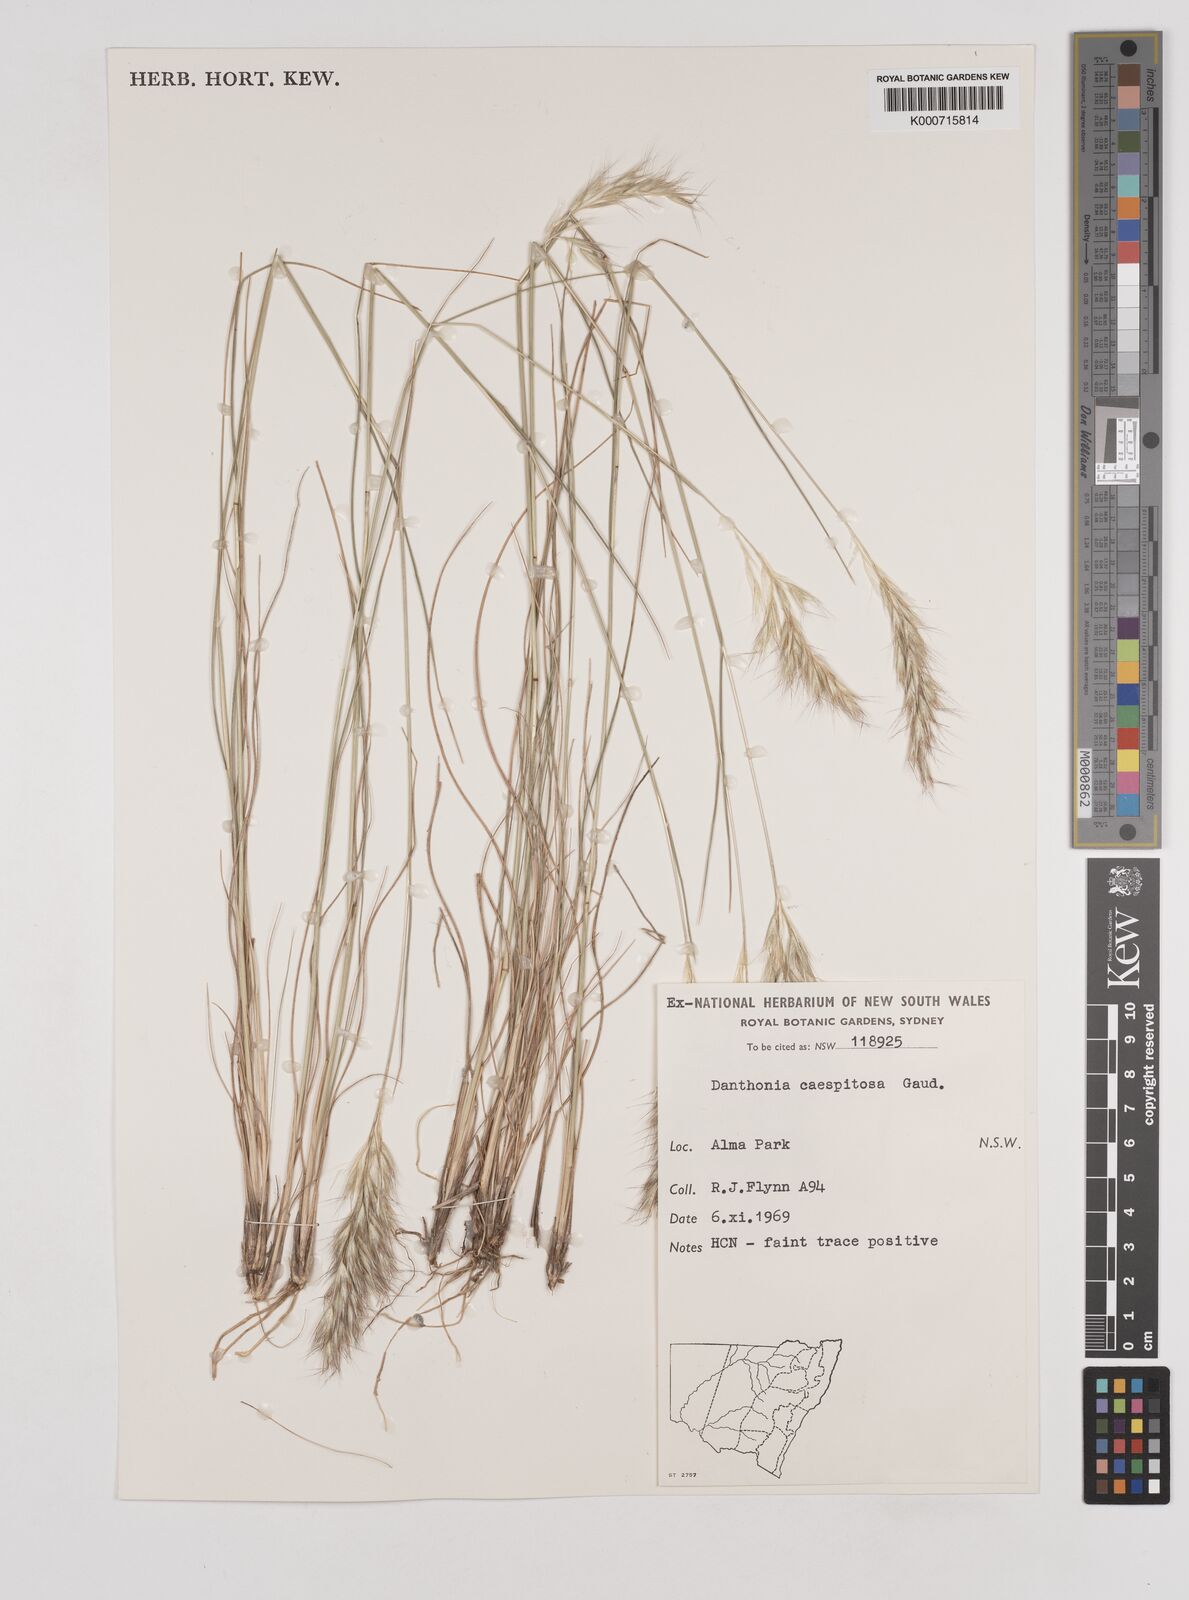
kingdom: Plantae
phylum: Tracheophyta
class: Liliopsida
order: Poales
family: Poaceae
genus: Rytidosperma
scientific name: Rytidosperma caespitosum
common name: Tufted wallaby grass
